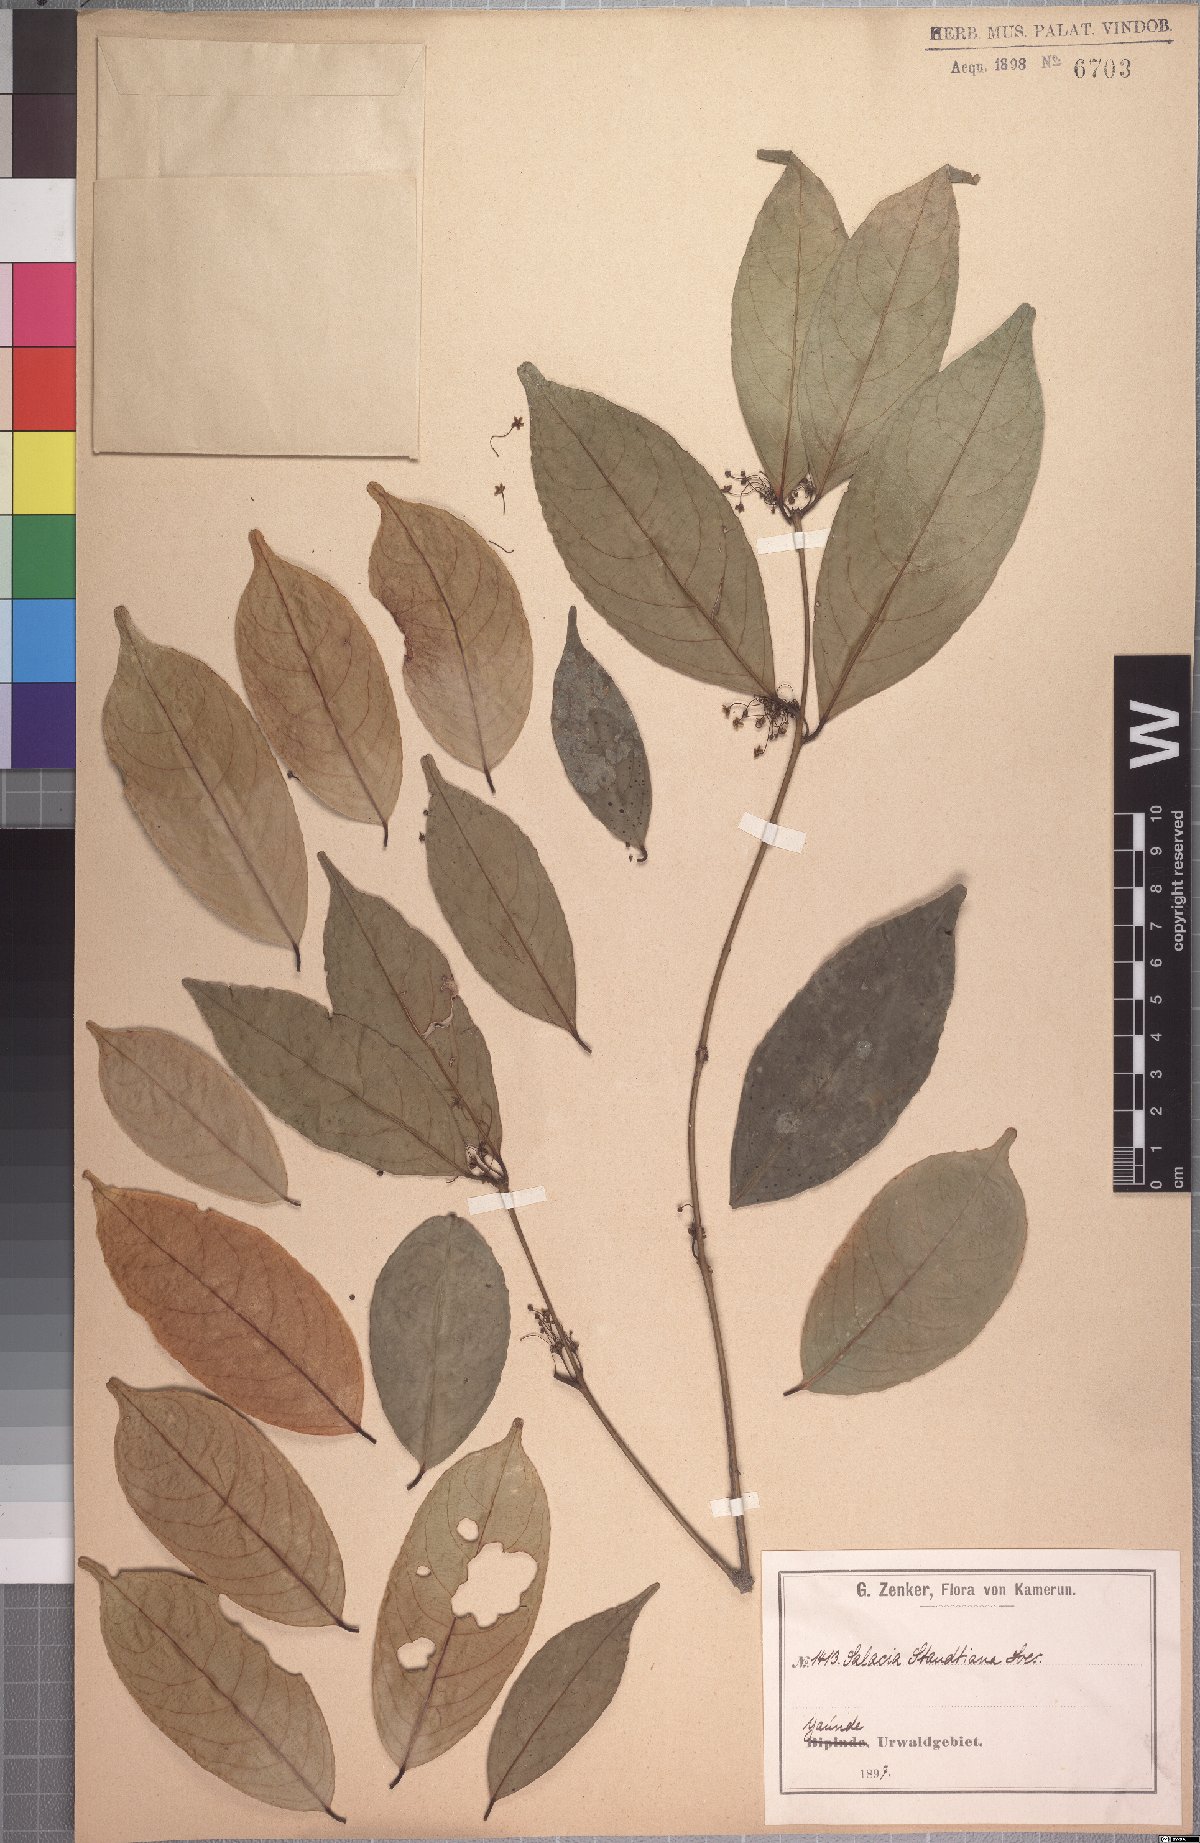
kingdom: Plantae
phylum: Tracheophyta
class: Magnoliopsida
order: Celastrales
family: Celastraceae
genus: Salacia
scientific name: Salacia staudtiana
